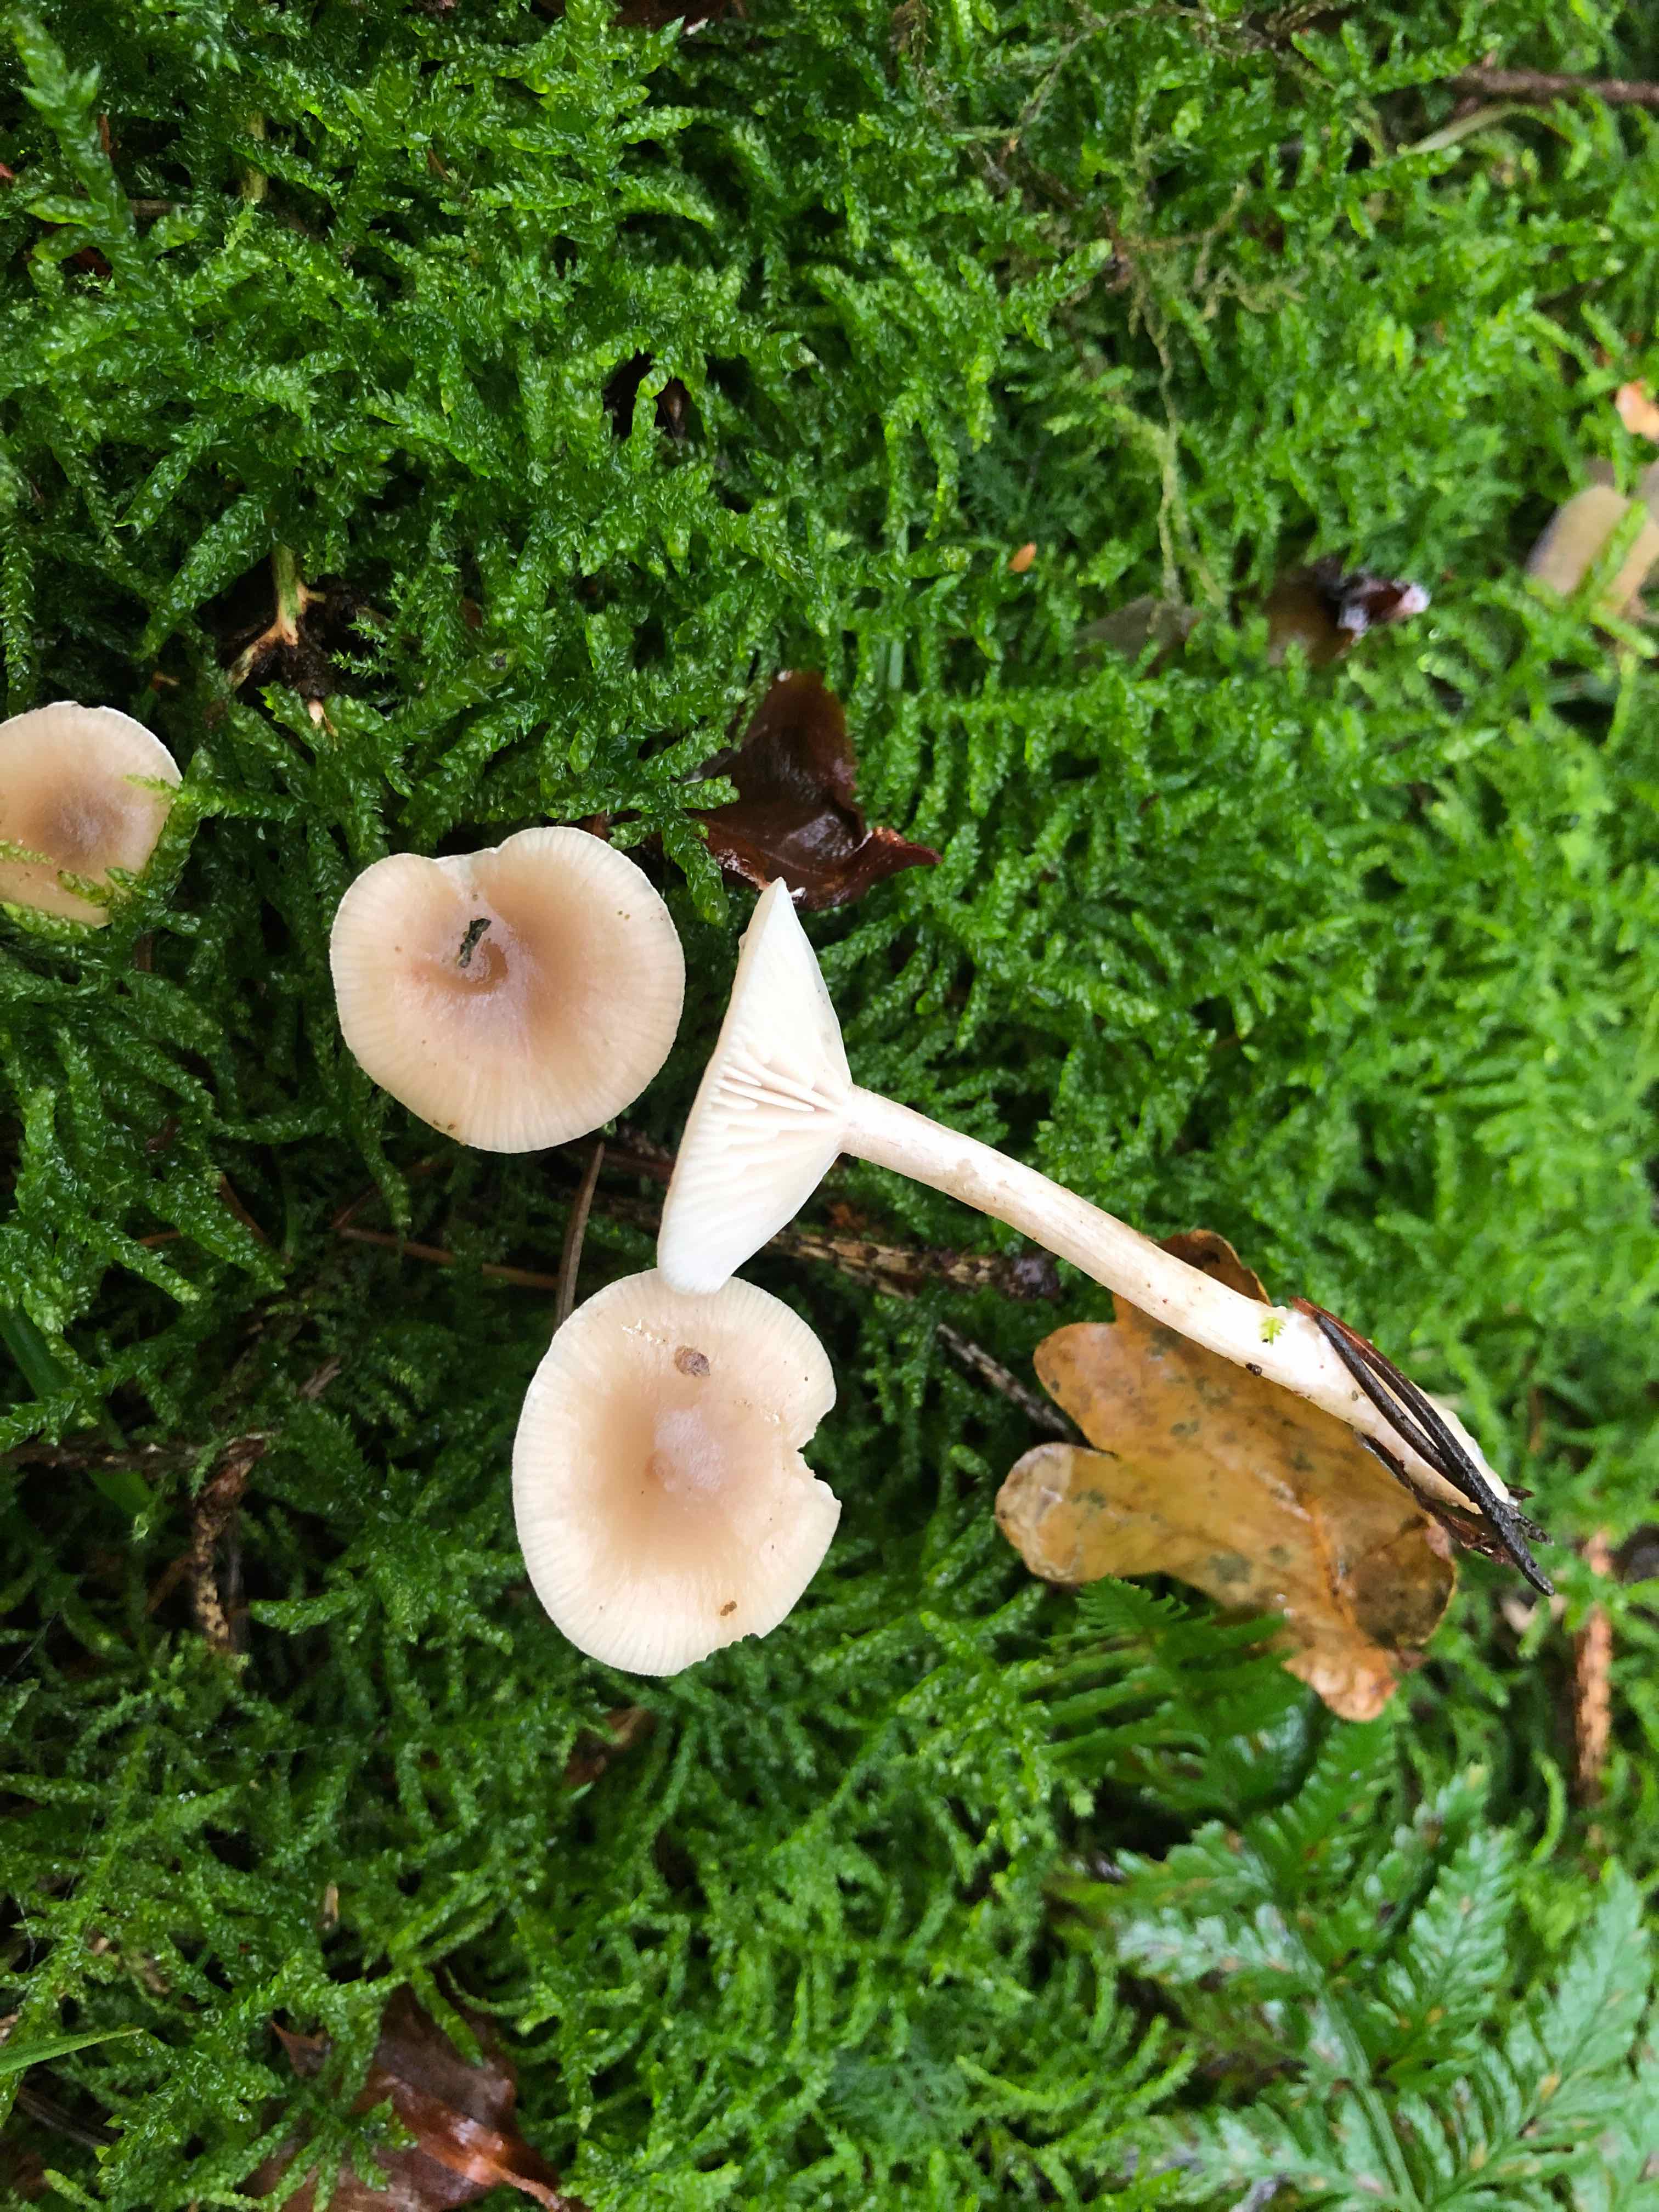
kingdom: Fungi
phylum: Basidiomycota
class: Agaricomycetes
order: Agaricales
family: Tricholomataceae
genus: Clitocybe
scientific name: Clitocybe fragrans
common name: vellugtende tragthat
